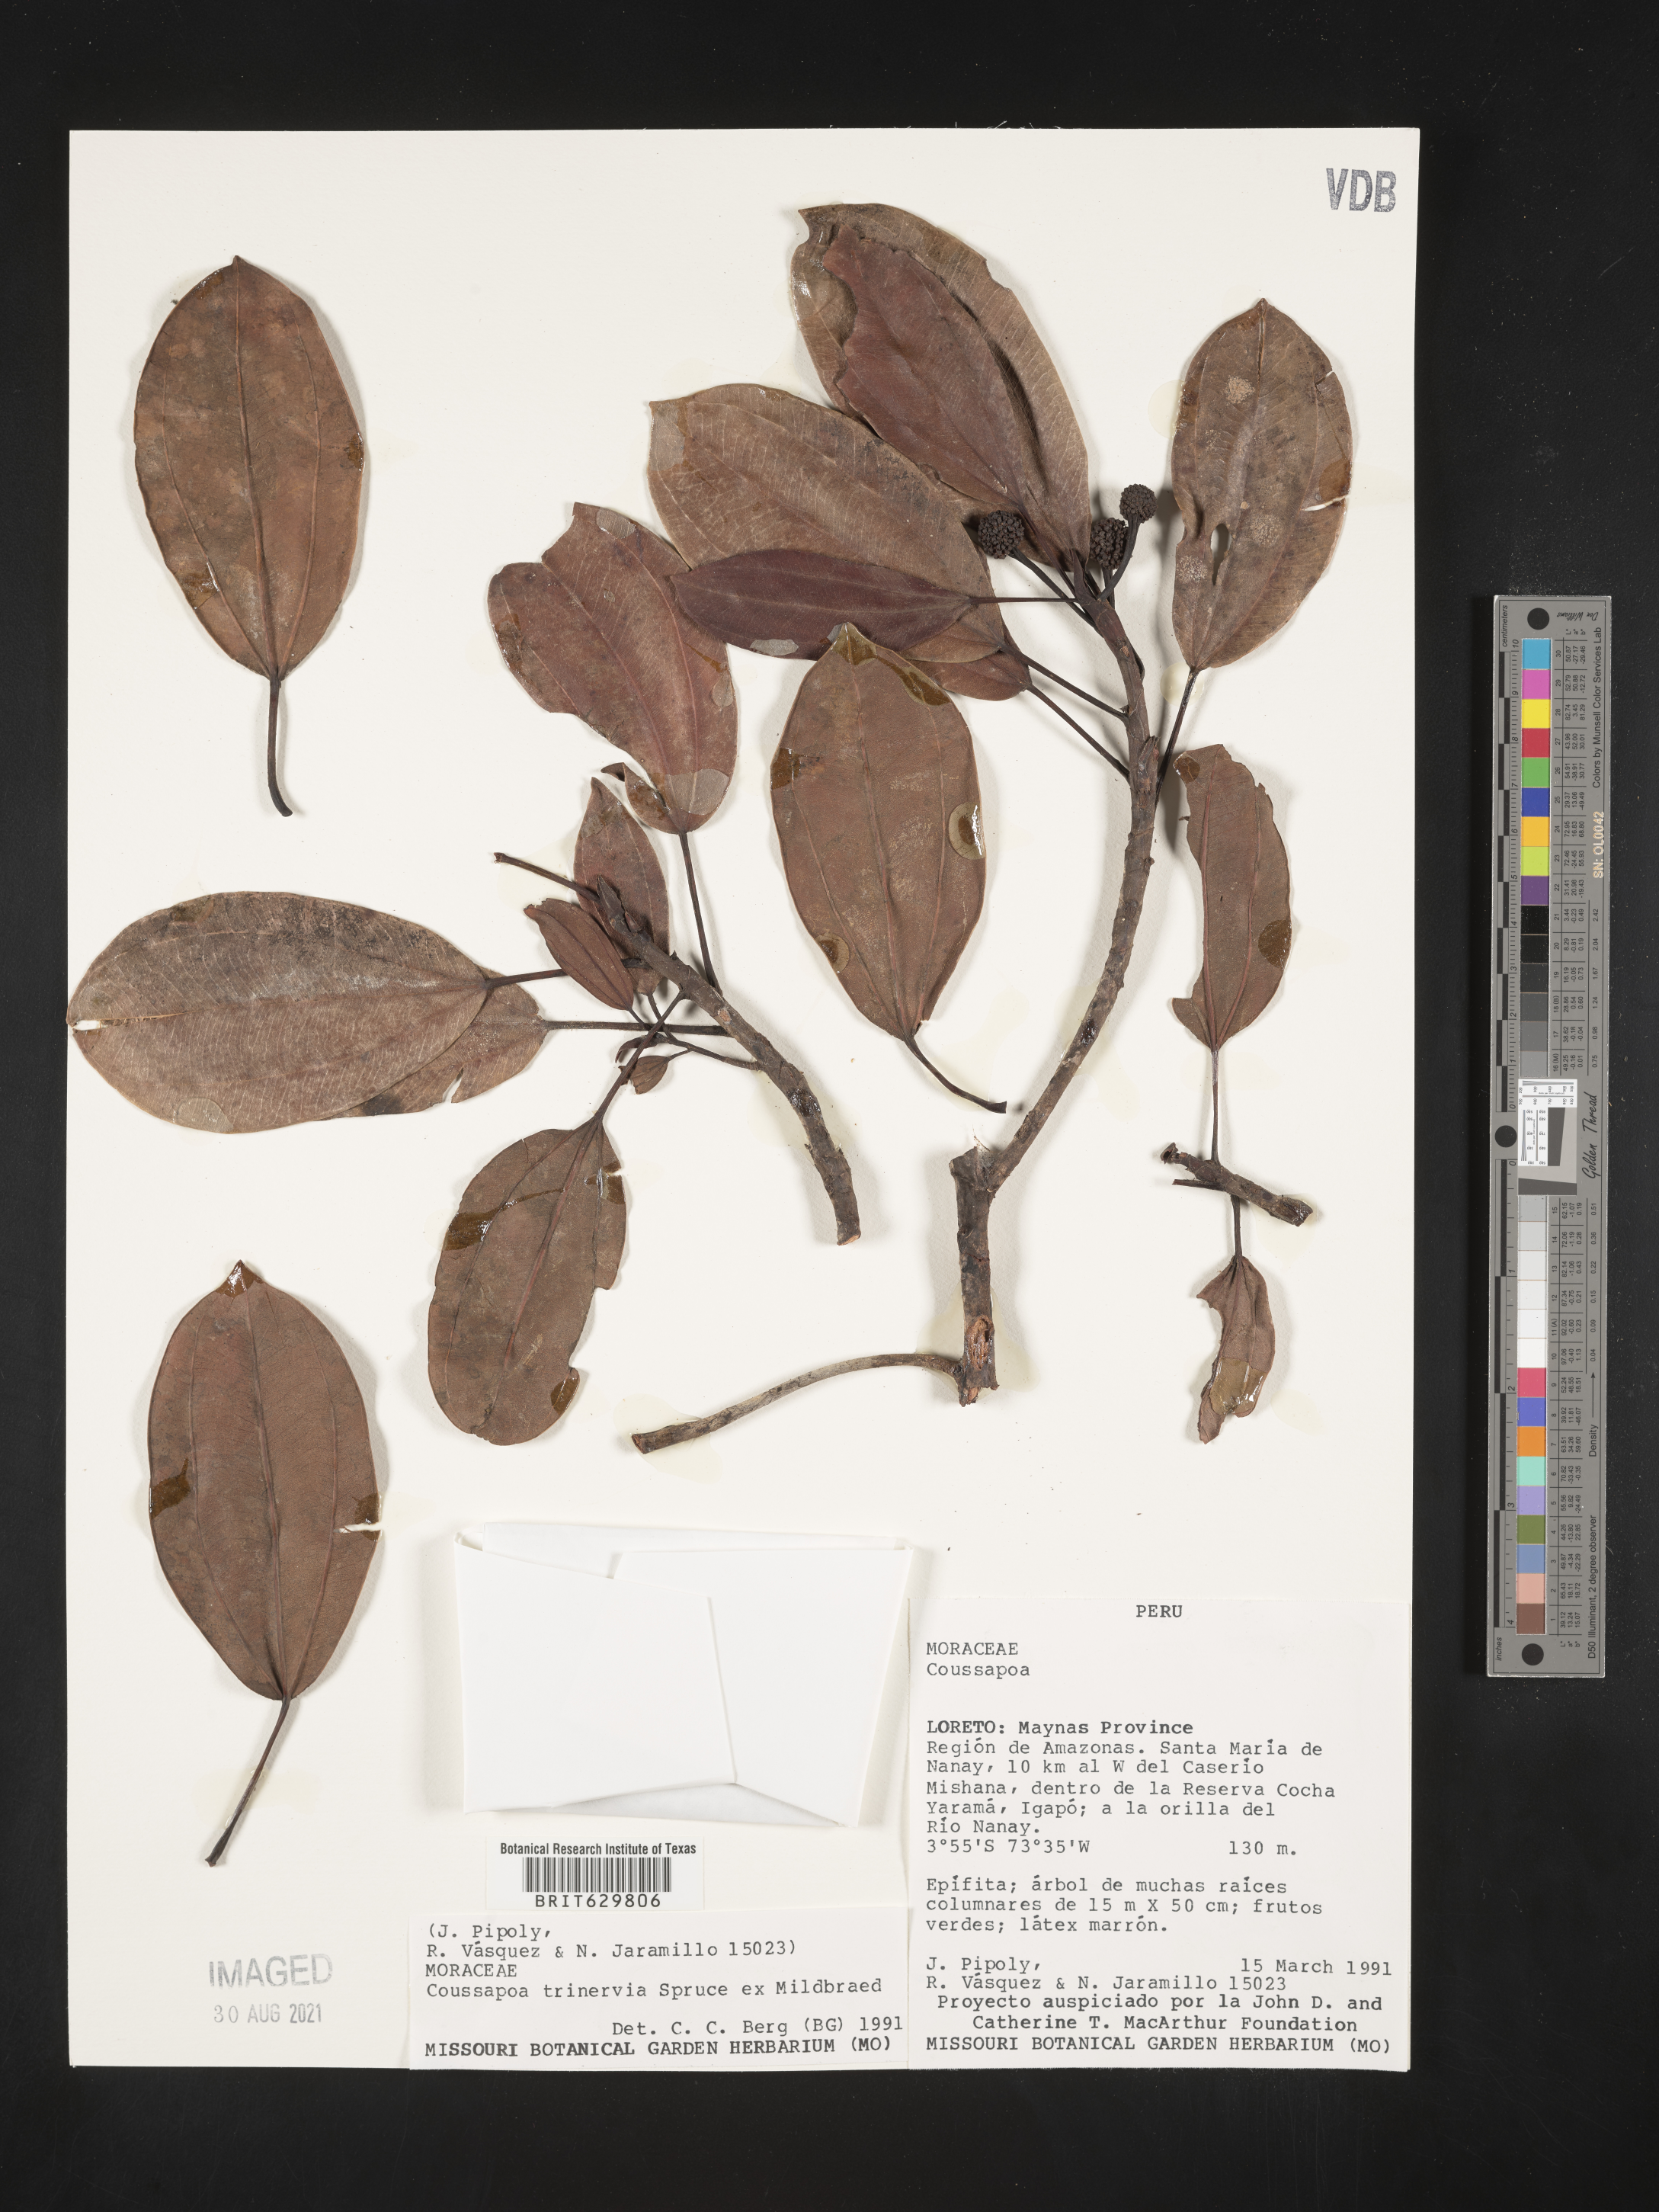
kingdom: Plantae
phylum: Tracheophyta
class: Magnoliopsida
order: Rosales
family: Urticaceae
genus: Coussapoa
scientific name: Coussapoa
